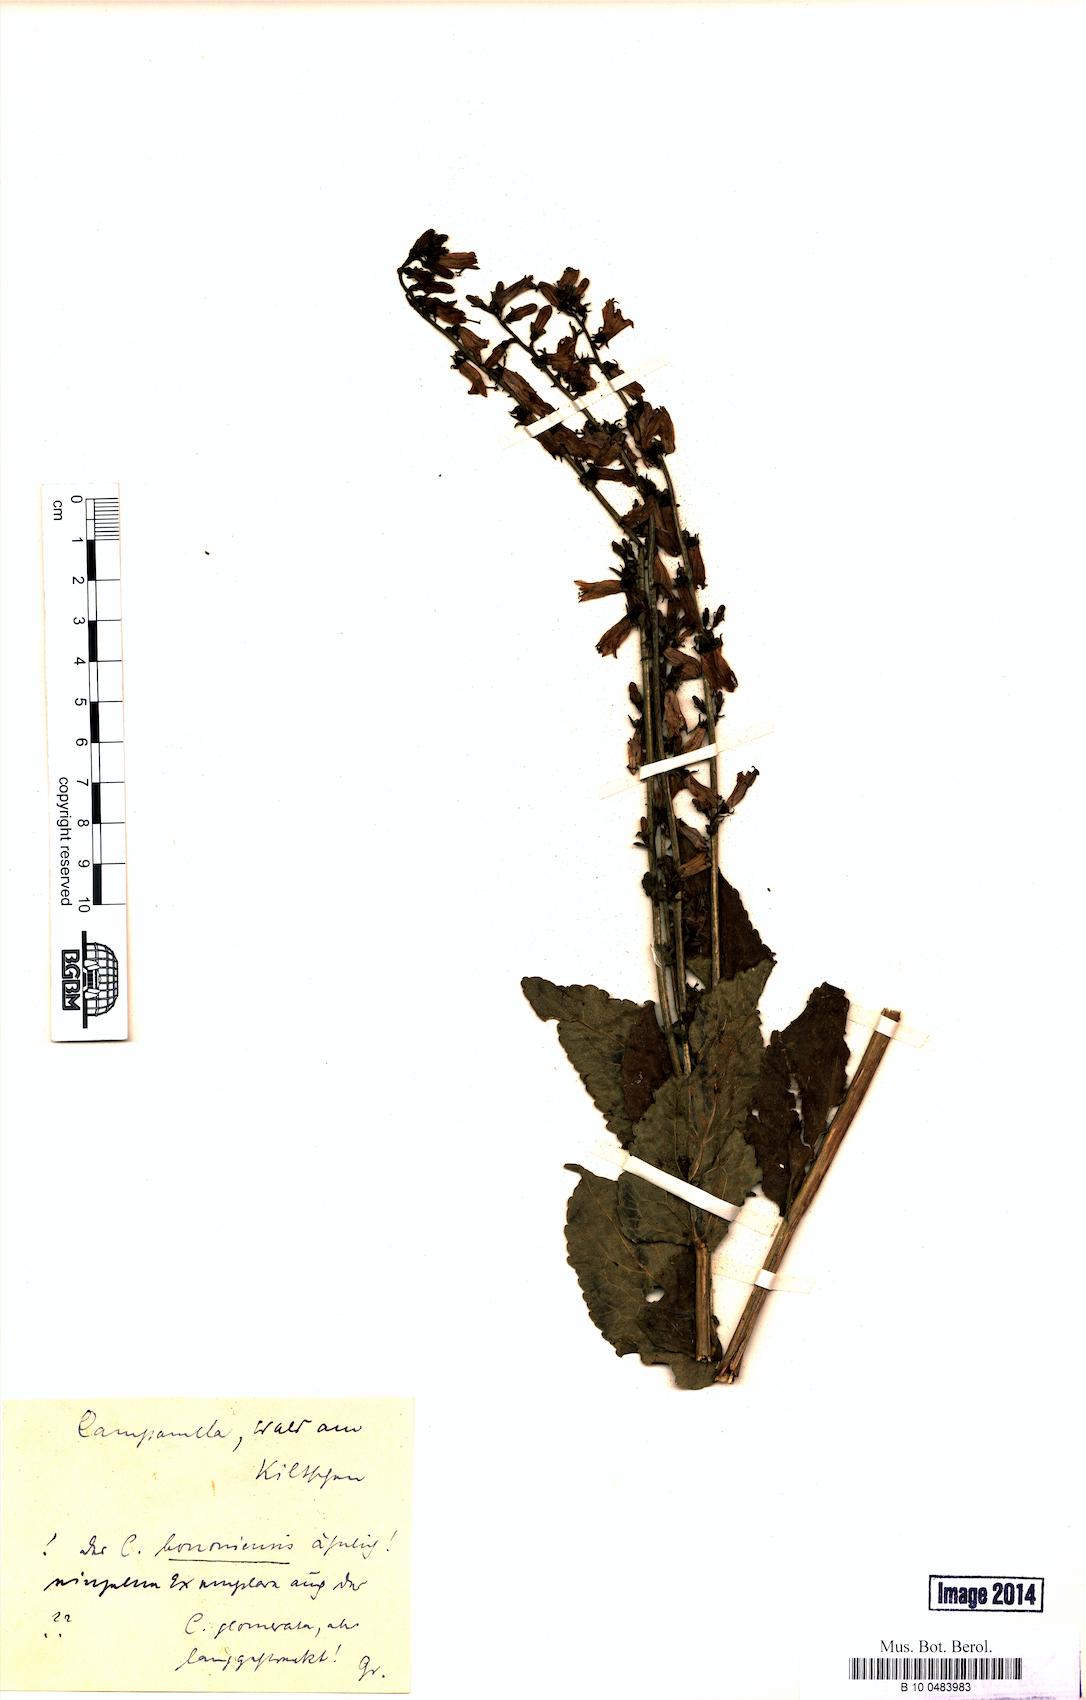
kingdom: Plantae
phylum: Tracheophyta
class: Magnoliopsida
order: Asterales
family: Campanulaceae
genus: Campanula
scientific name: Campanula bononiensis
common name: Pale bellflower
